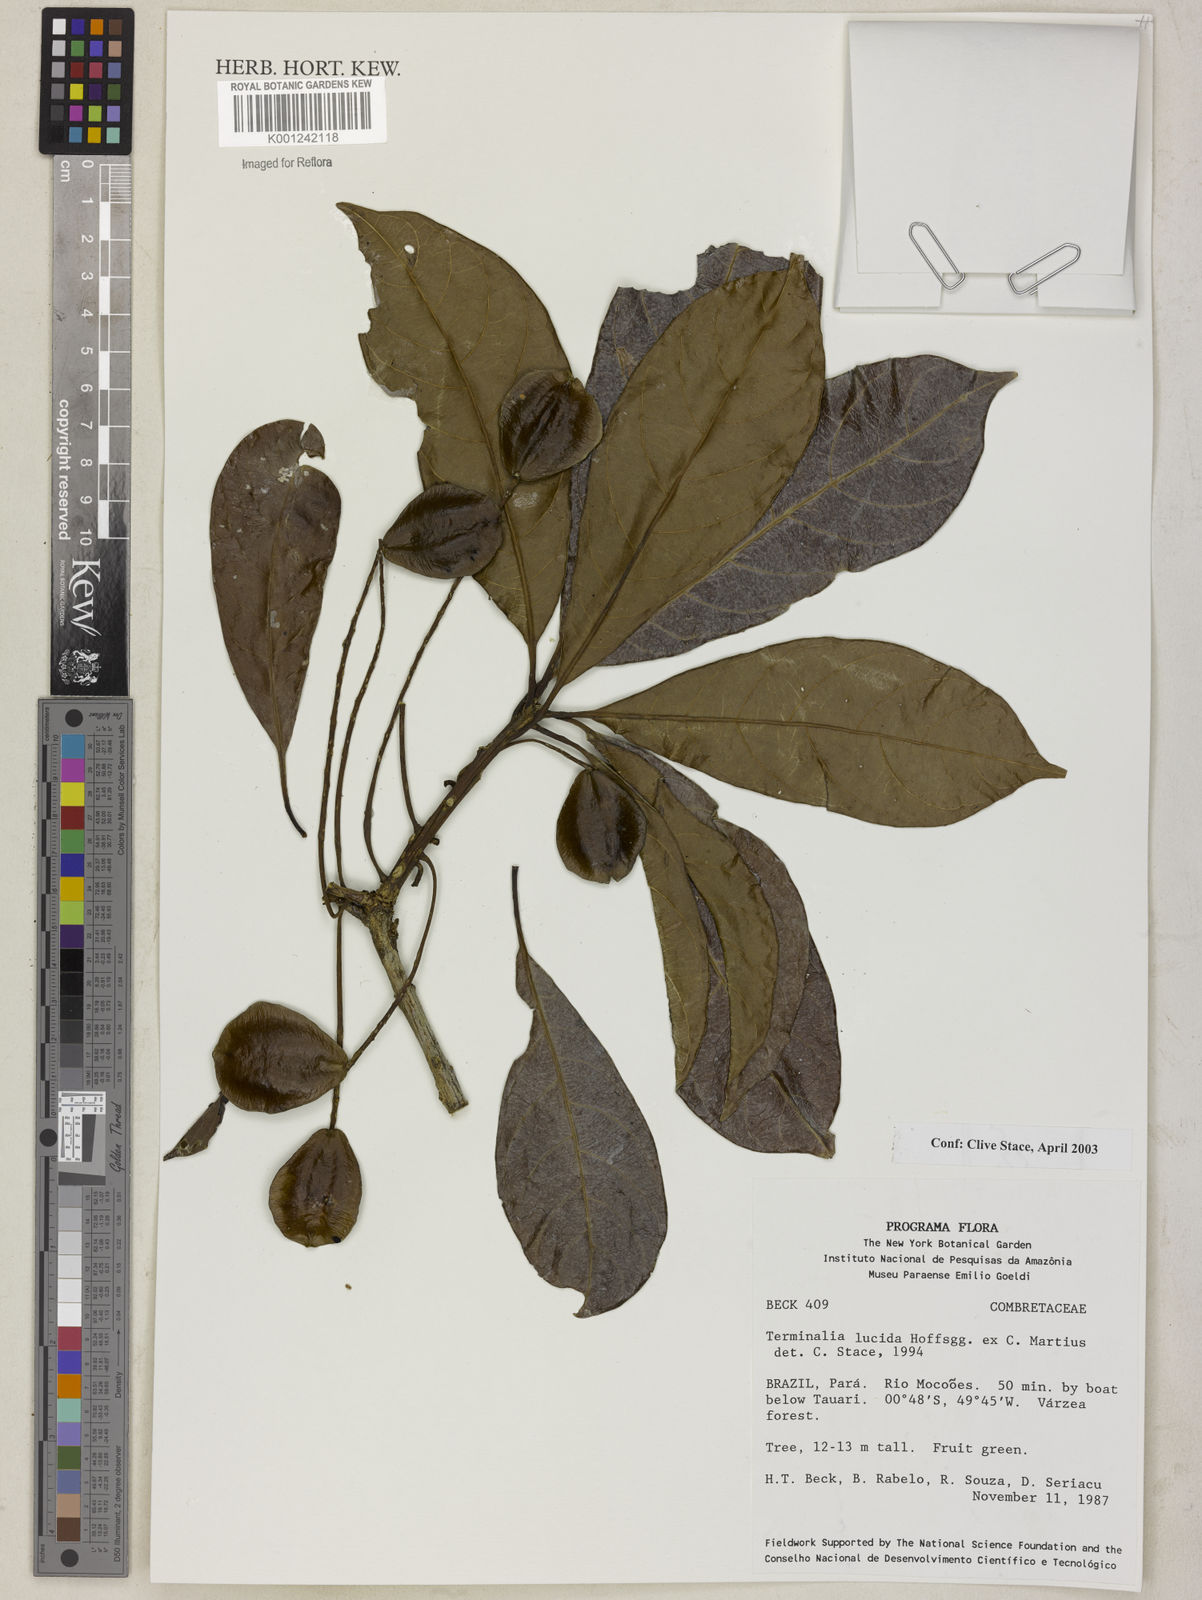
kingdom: Plantae
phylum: Tracheophyta
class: Magnoliopsida
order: Myrtales
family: Combretaceae
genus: Terminalia
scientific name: Terminalia lucida
